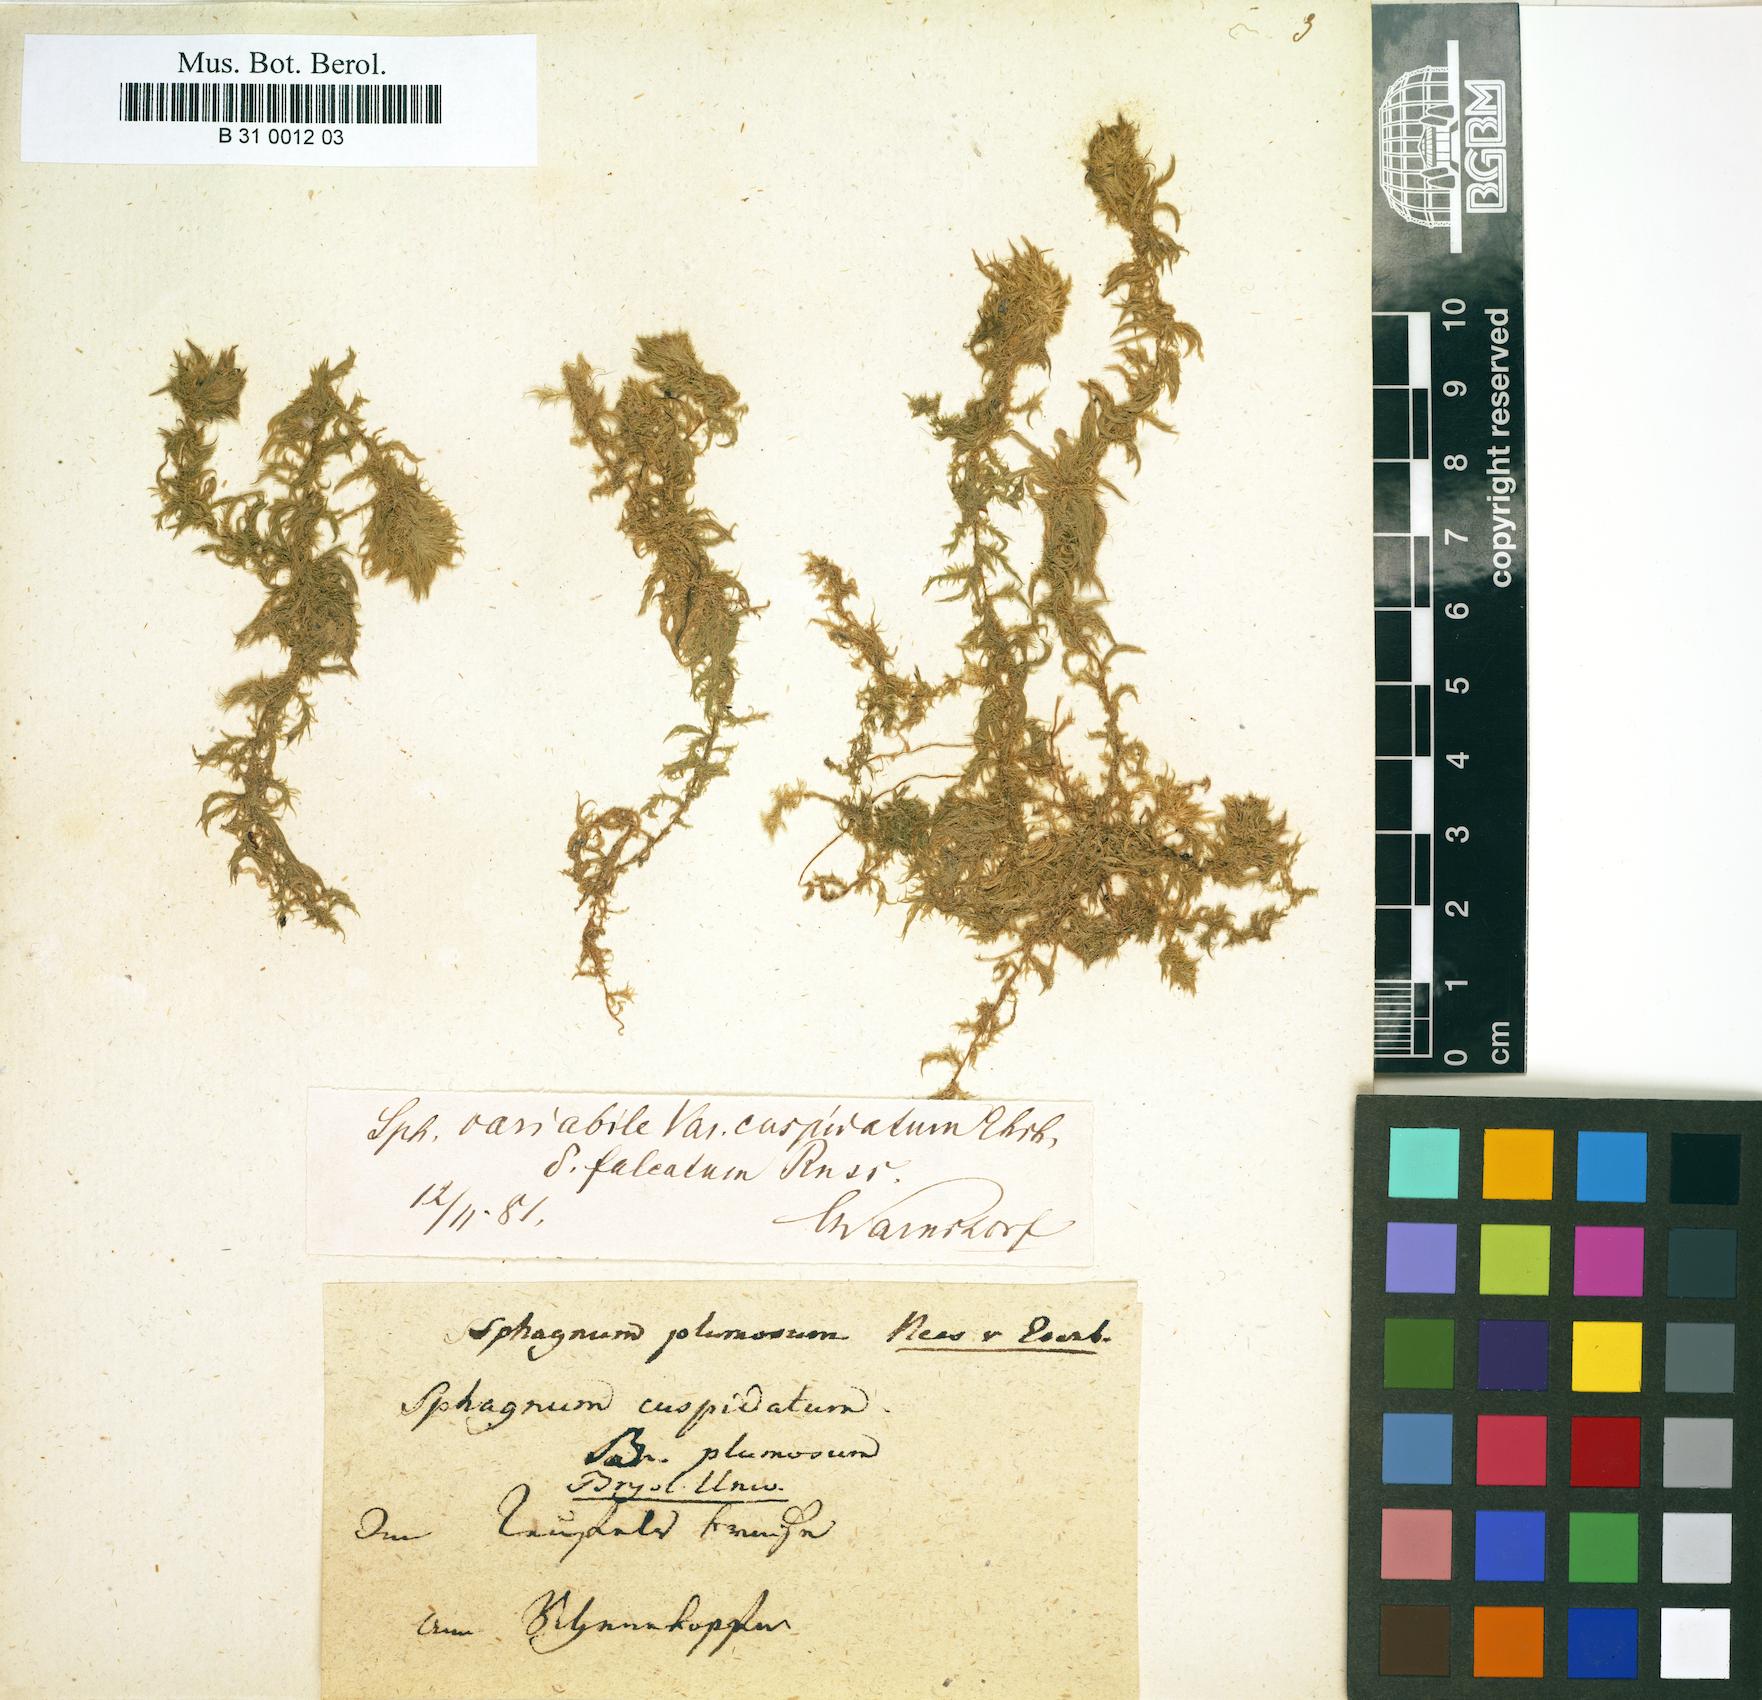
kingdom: Plantae
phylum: Bryophyta
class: Sphagnopsida
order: Sphagnales
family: Sphagnaceae
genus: Sphagnum
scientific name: Sphagnum cuspidatum
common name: Feathery peat moss
